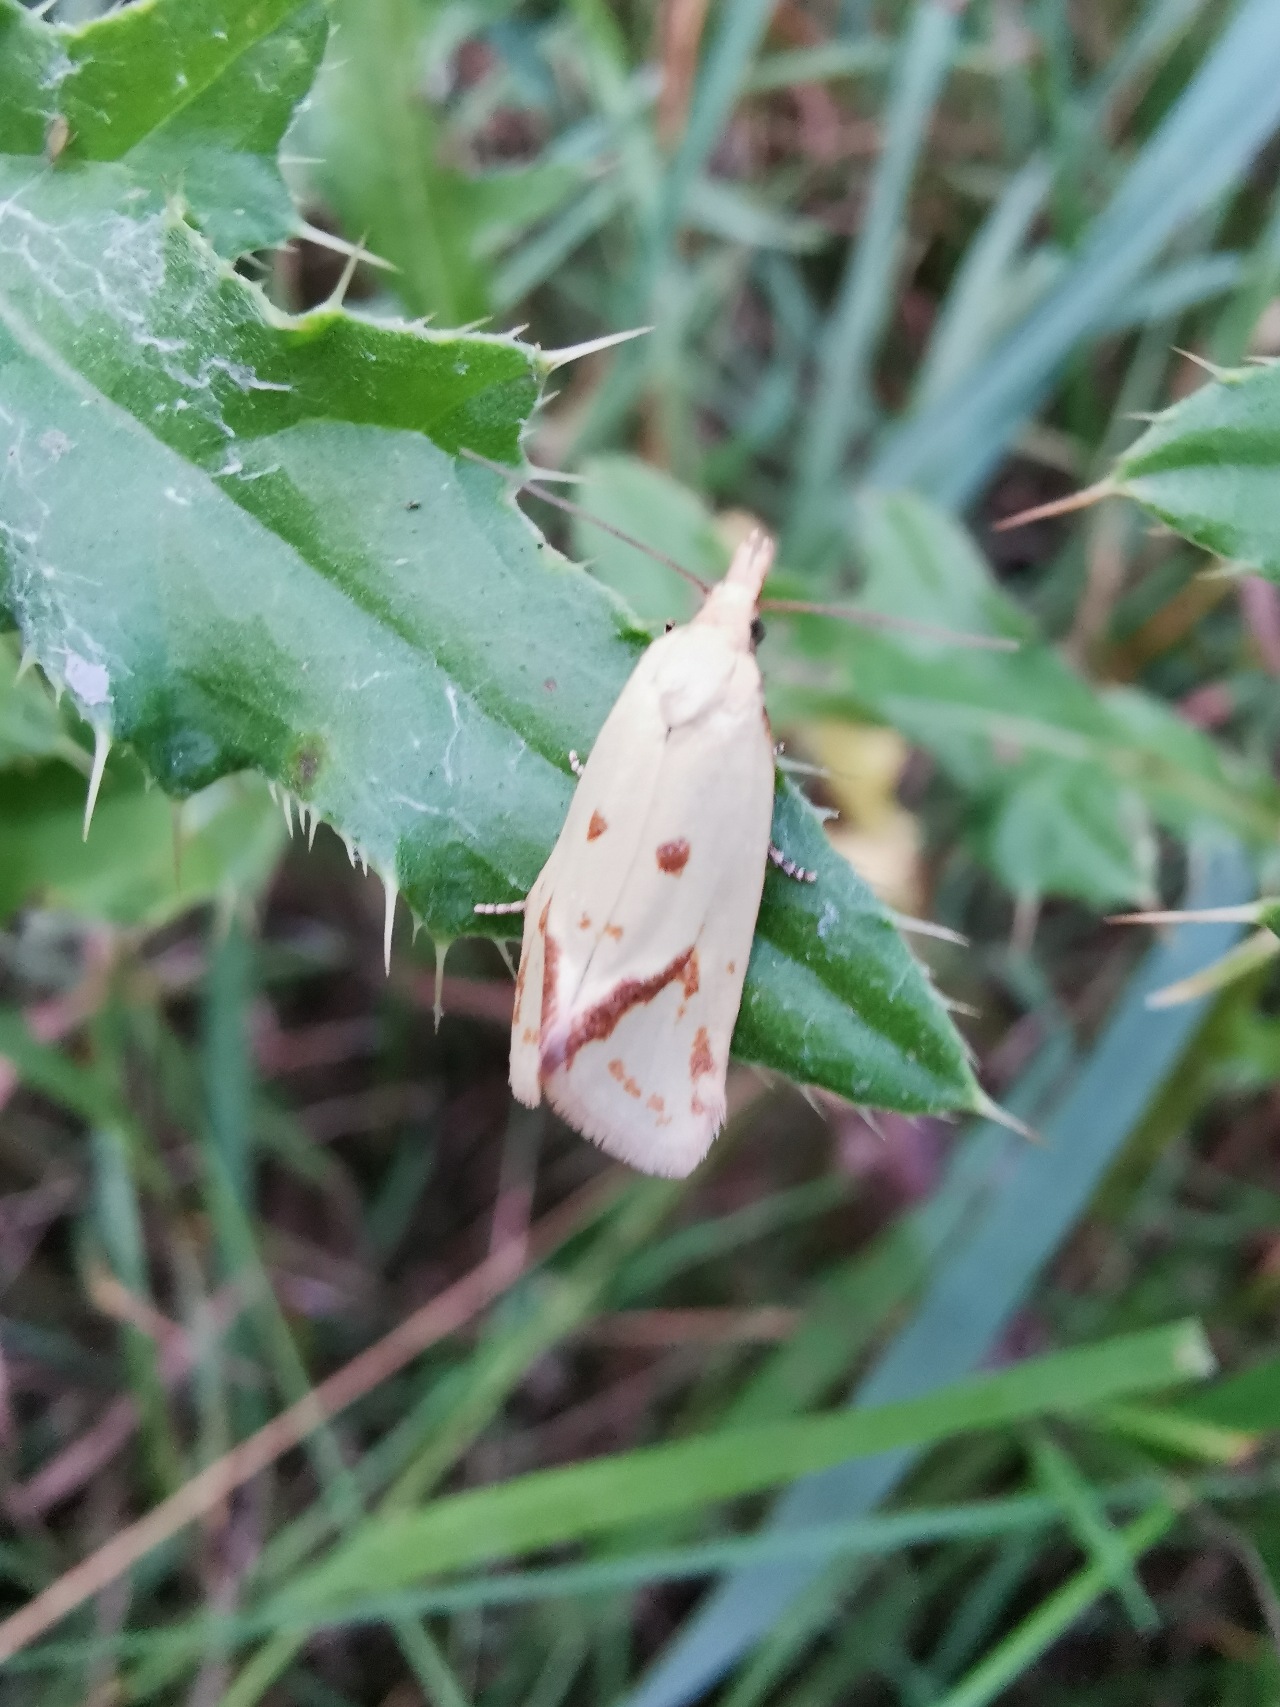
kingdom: Animalia
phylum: Arthropoda
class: Insecta
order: Lepidoptera
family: Tortricidae
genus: Agapeta
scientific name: Agapeta hamana
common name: Tidselgulvikler
